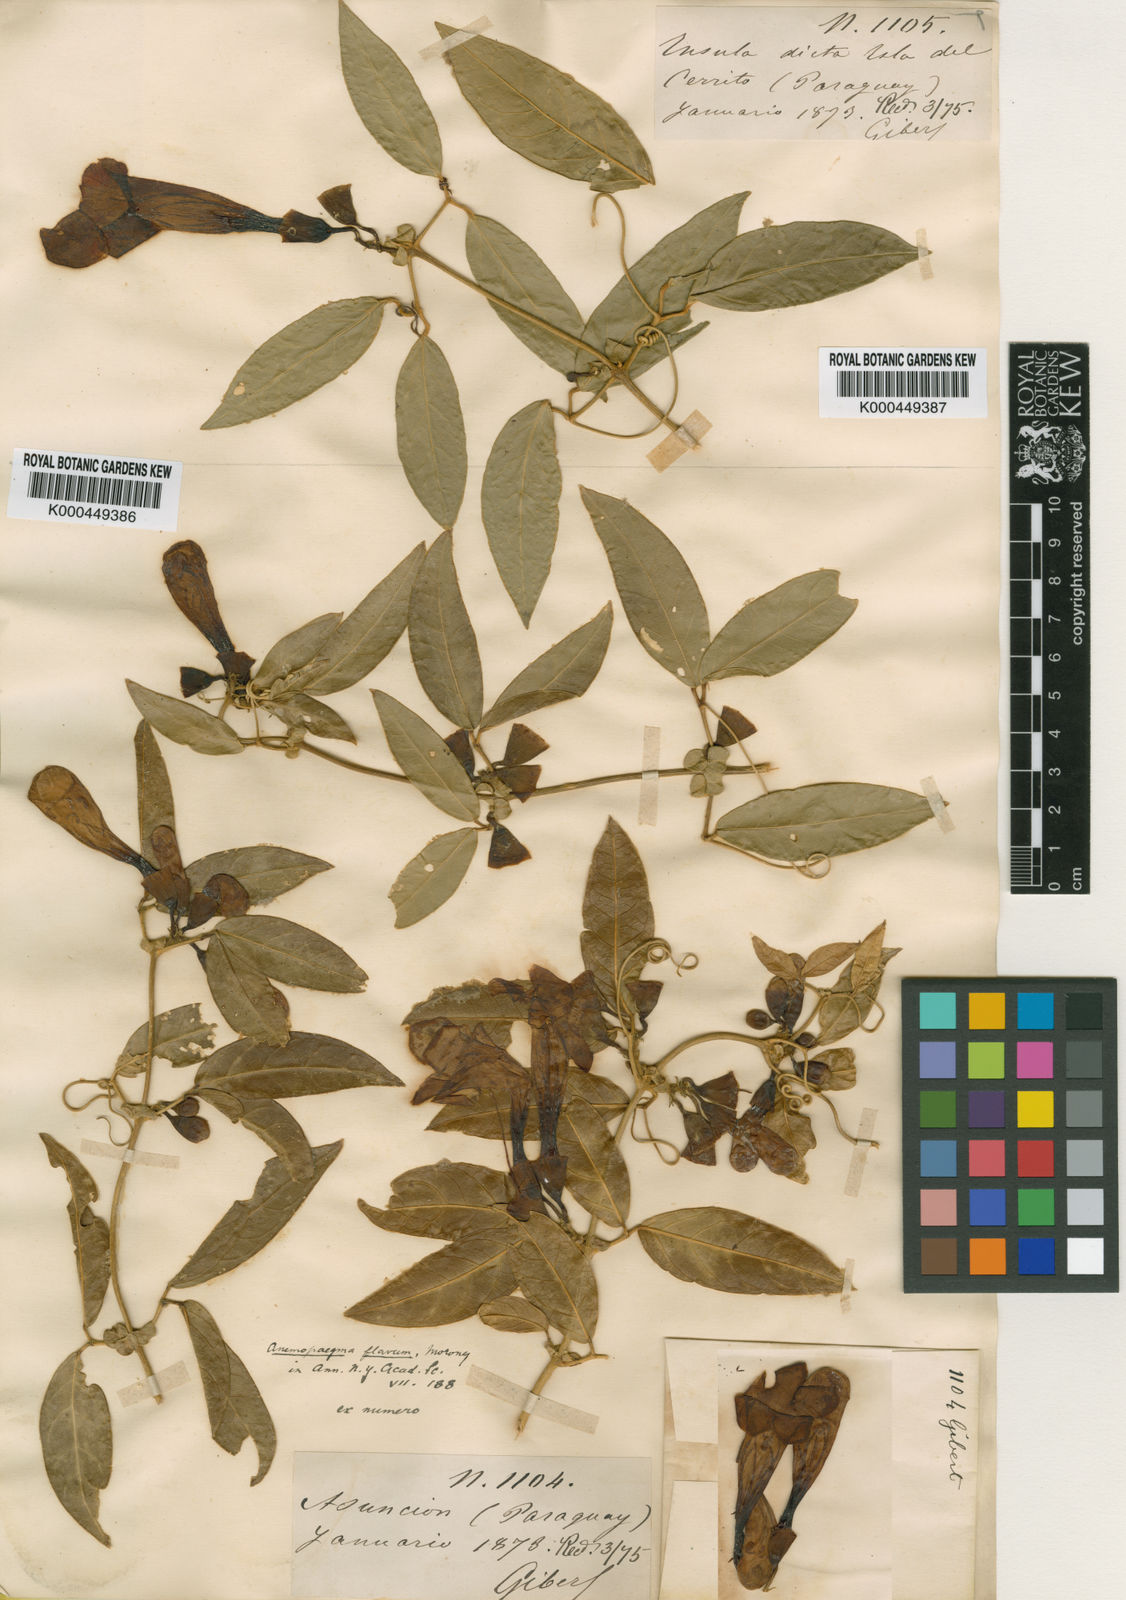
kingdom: Plantae
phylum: Tracheophyta
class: Magnoliopsida
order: Lamiales
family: Bignoniaceae
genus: Anemopaegma
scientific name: Anemopaegma flavum
